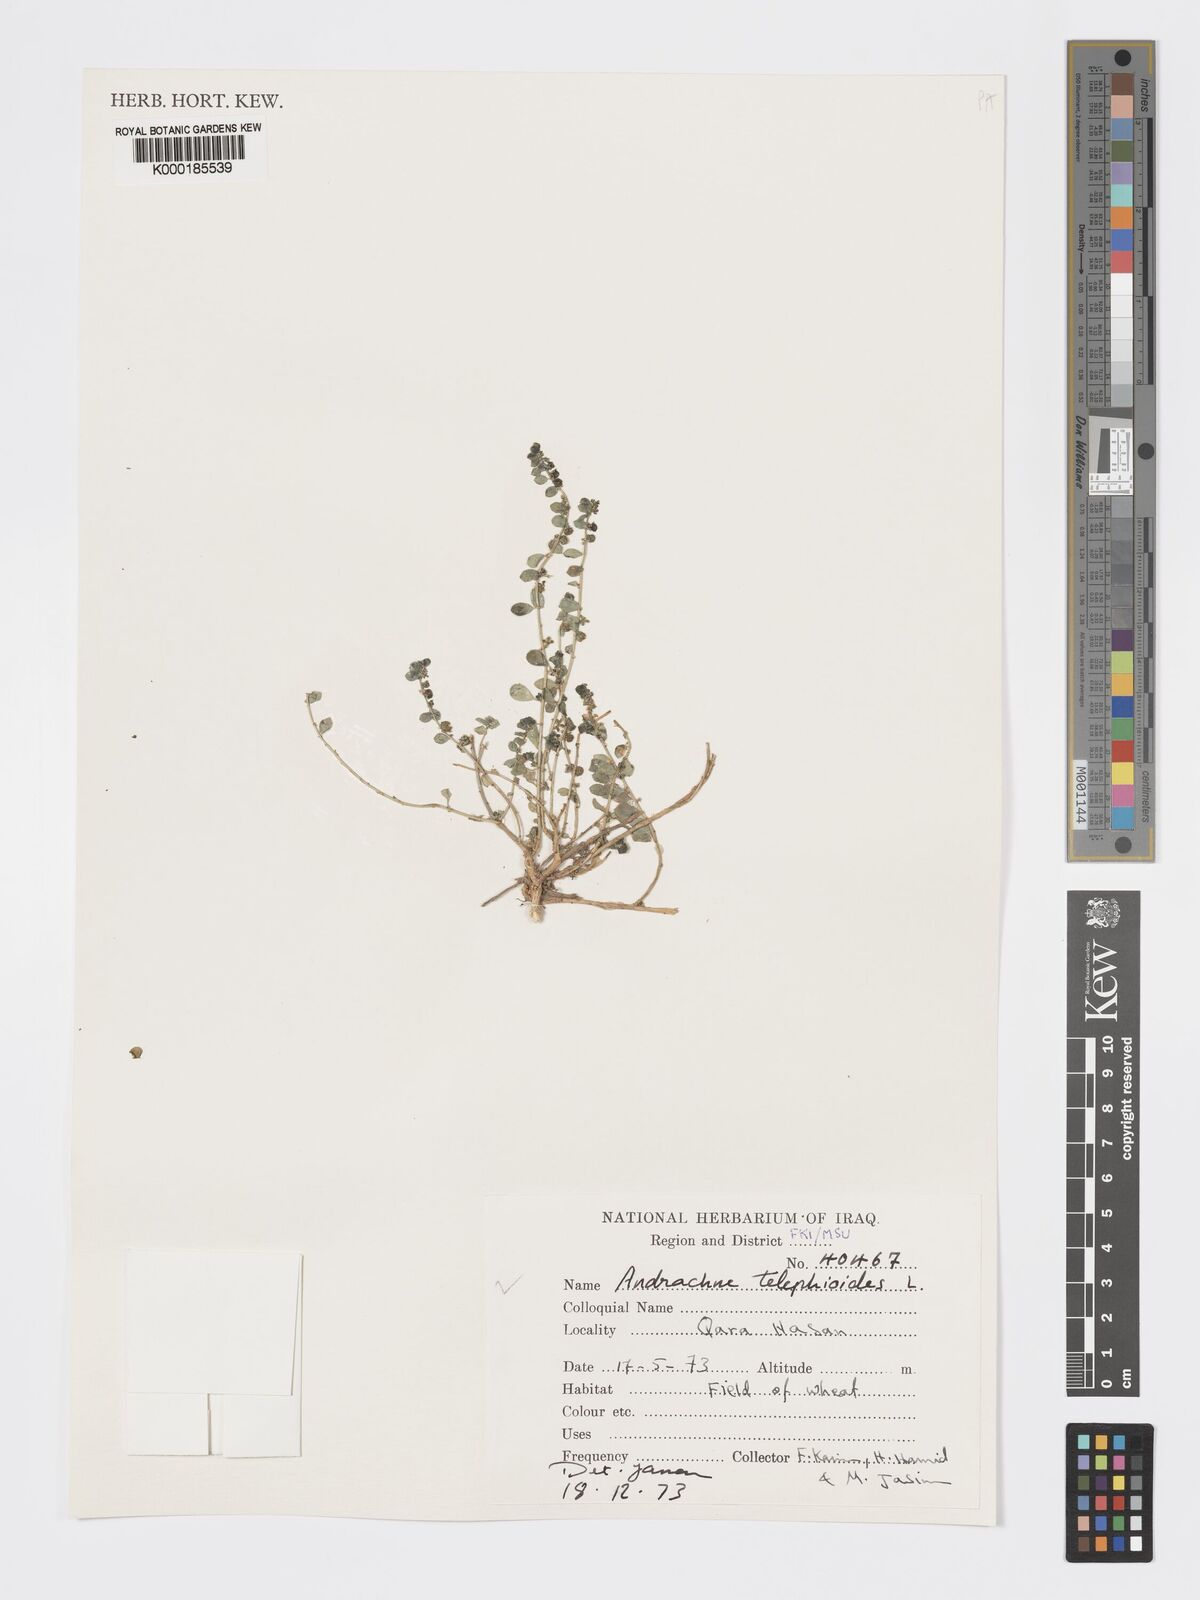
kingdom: Plantae
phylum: Tracheophyta
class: Magnoliopsida
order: Malpighiales
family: Phyllanthaceae
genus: Andrachne
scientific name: Andrachne telephioides
